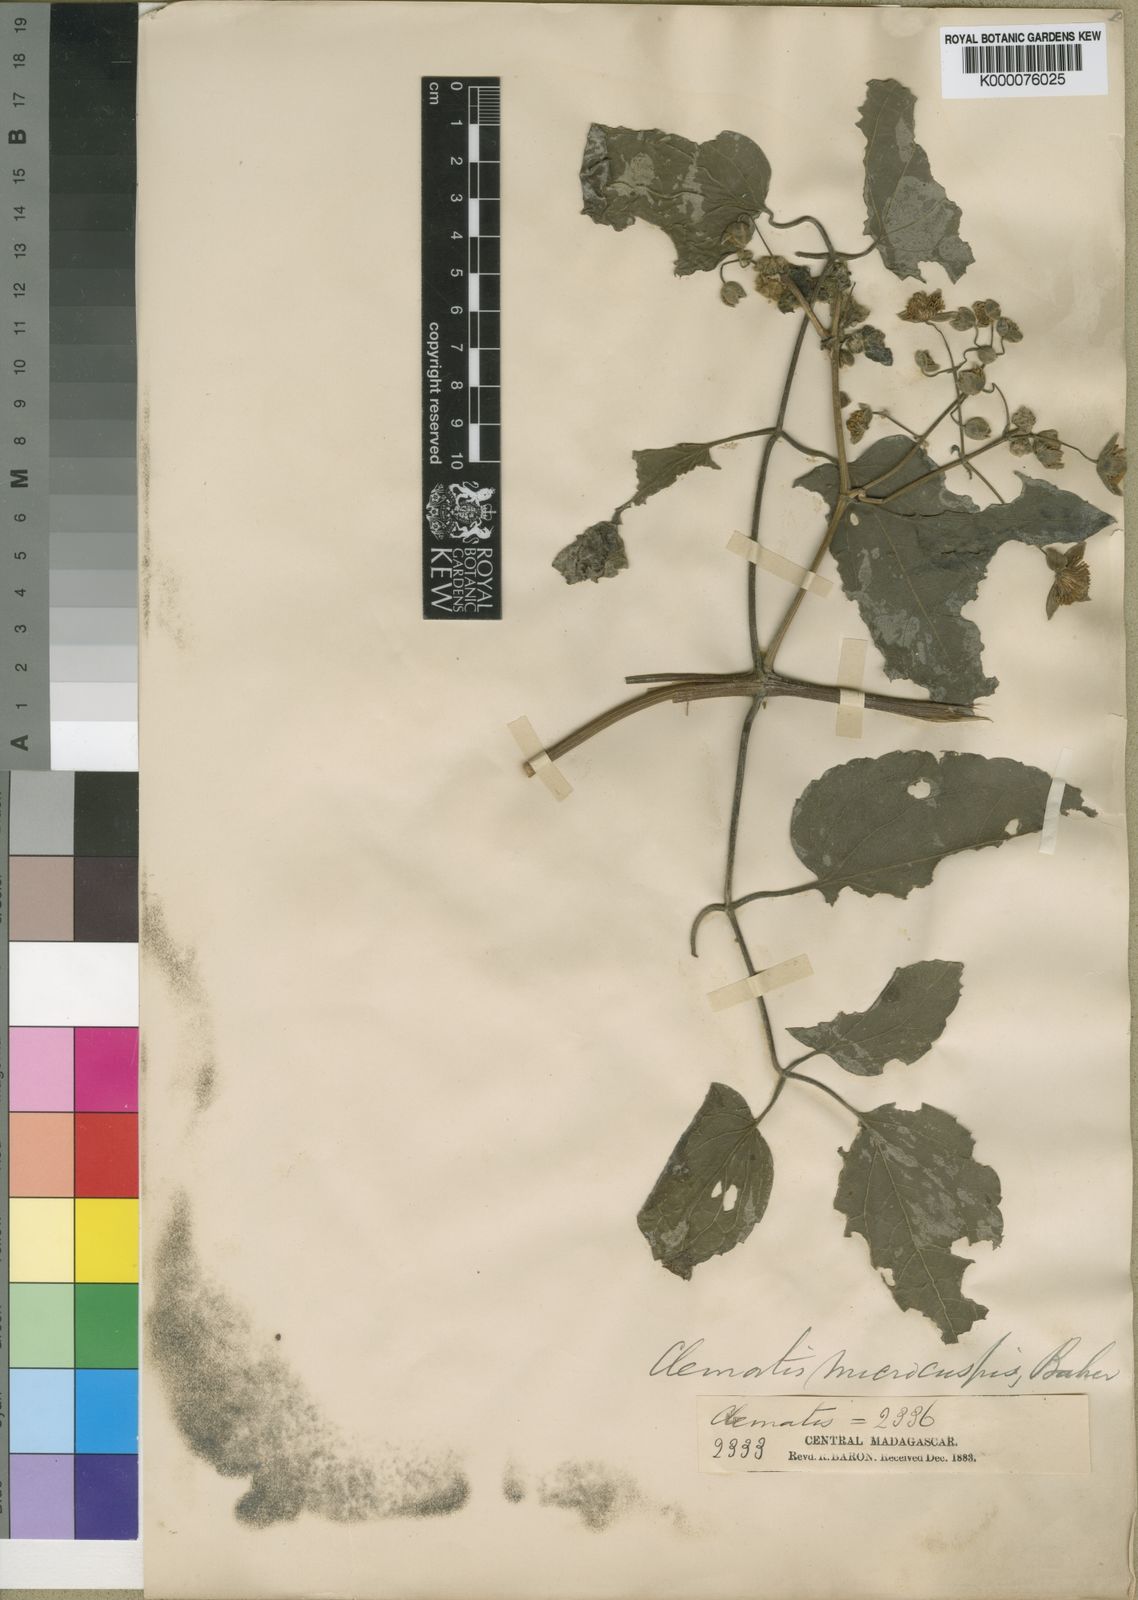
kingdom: Plantae
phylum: Tracheophyta
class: Magnoliopsida
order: Ranunculales
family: Ranunculaceae
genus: Clematis
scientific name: Clematis orientalis
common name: Oriental virgin's-bower
